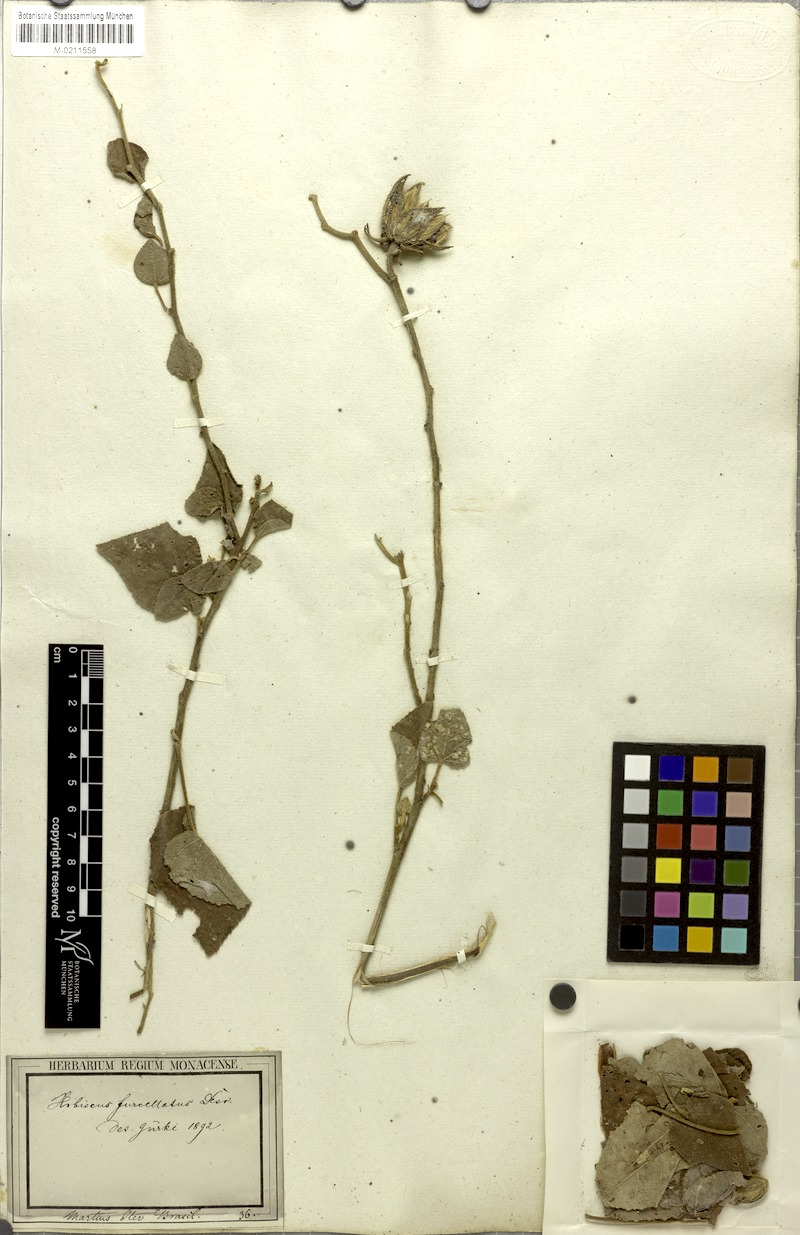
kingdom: Plantae
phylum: Tracheophyta
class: Magnoliopsida
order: Malvales
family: Malvaceae
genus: Hibiscus
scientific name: Hibiscus furcellatus
